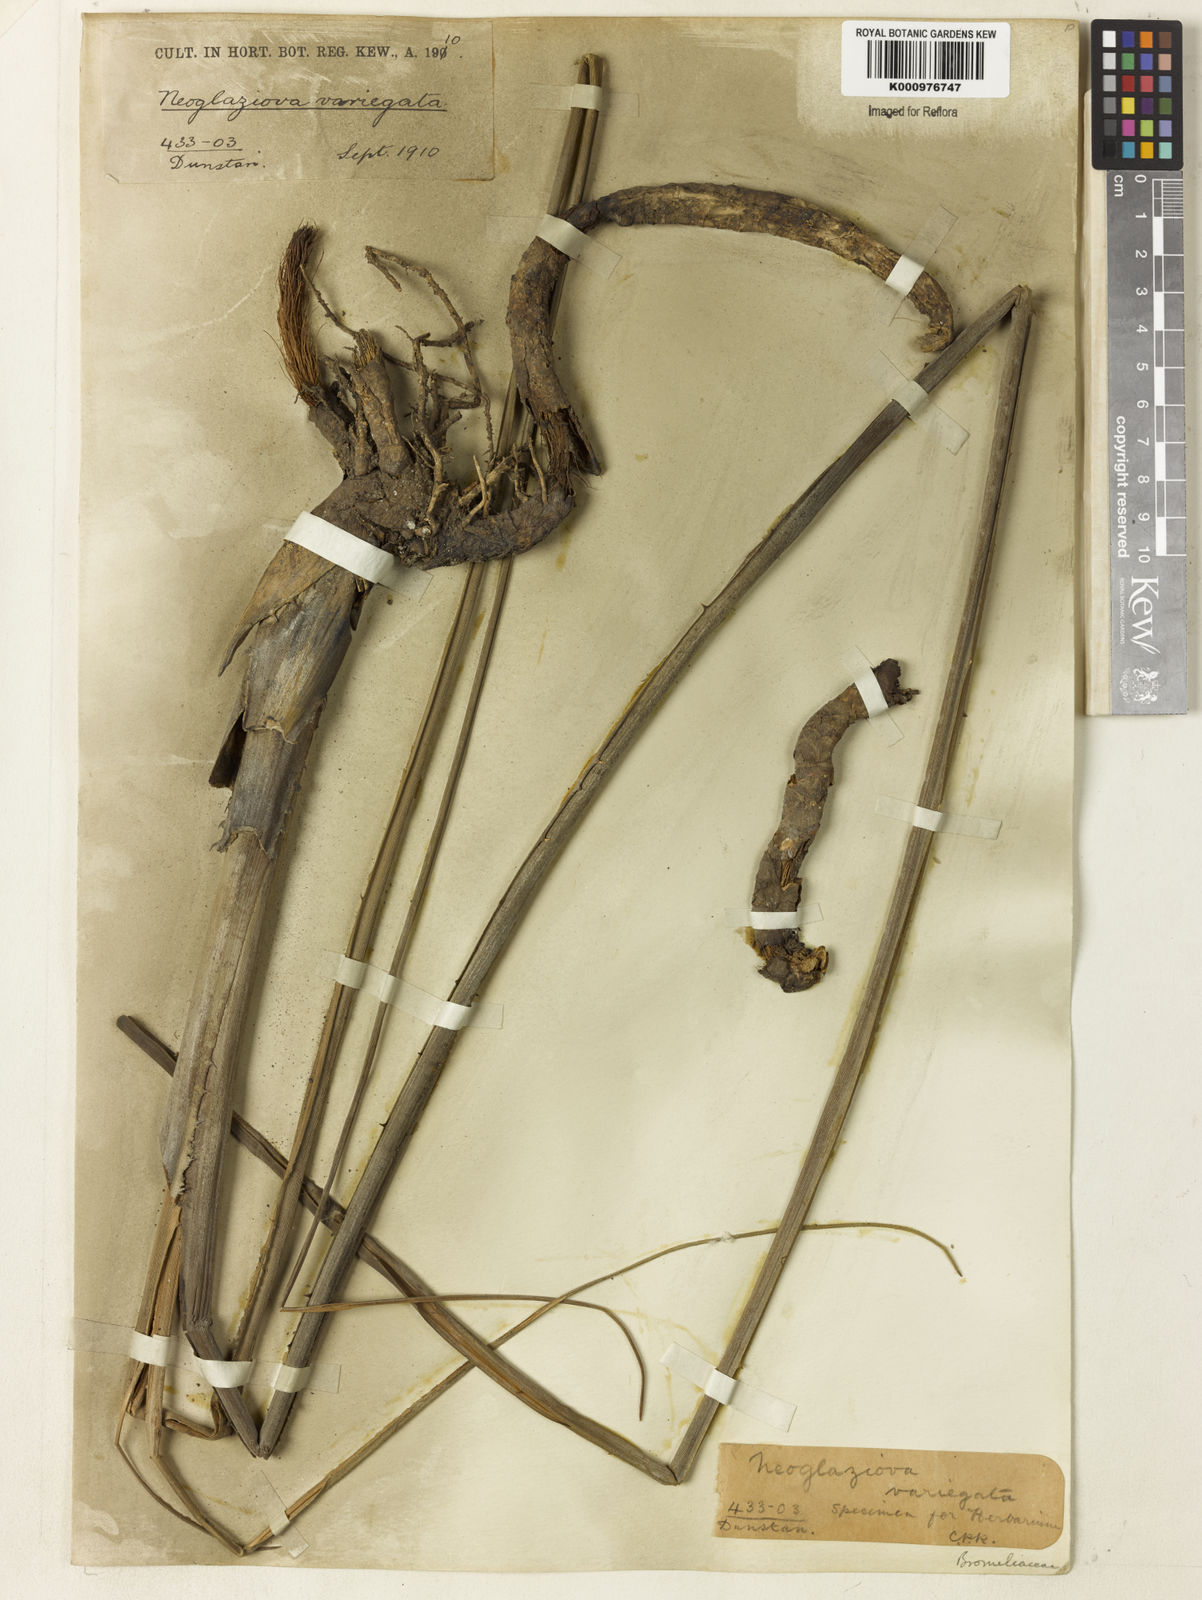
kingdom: Plantae
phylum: Tracheophyta
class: Liliopsida
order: Poales
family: Bromeliaceae
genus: Neoglaziovia
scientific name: Neoglaziovia concolor
